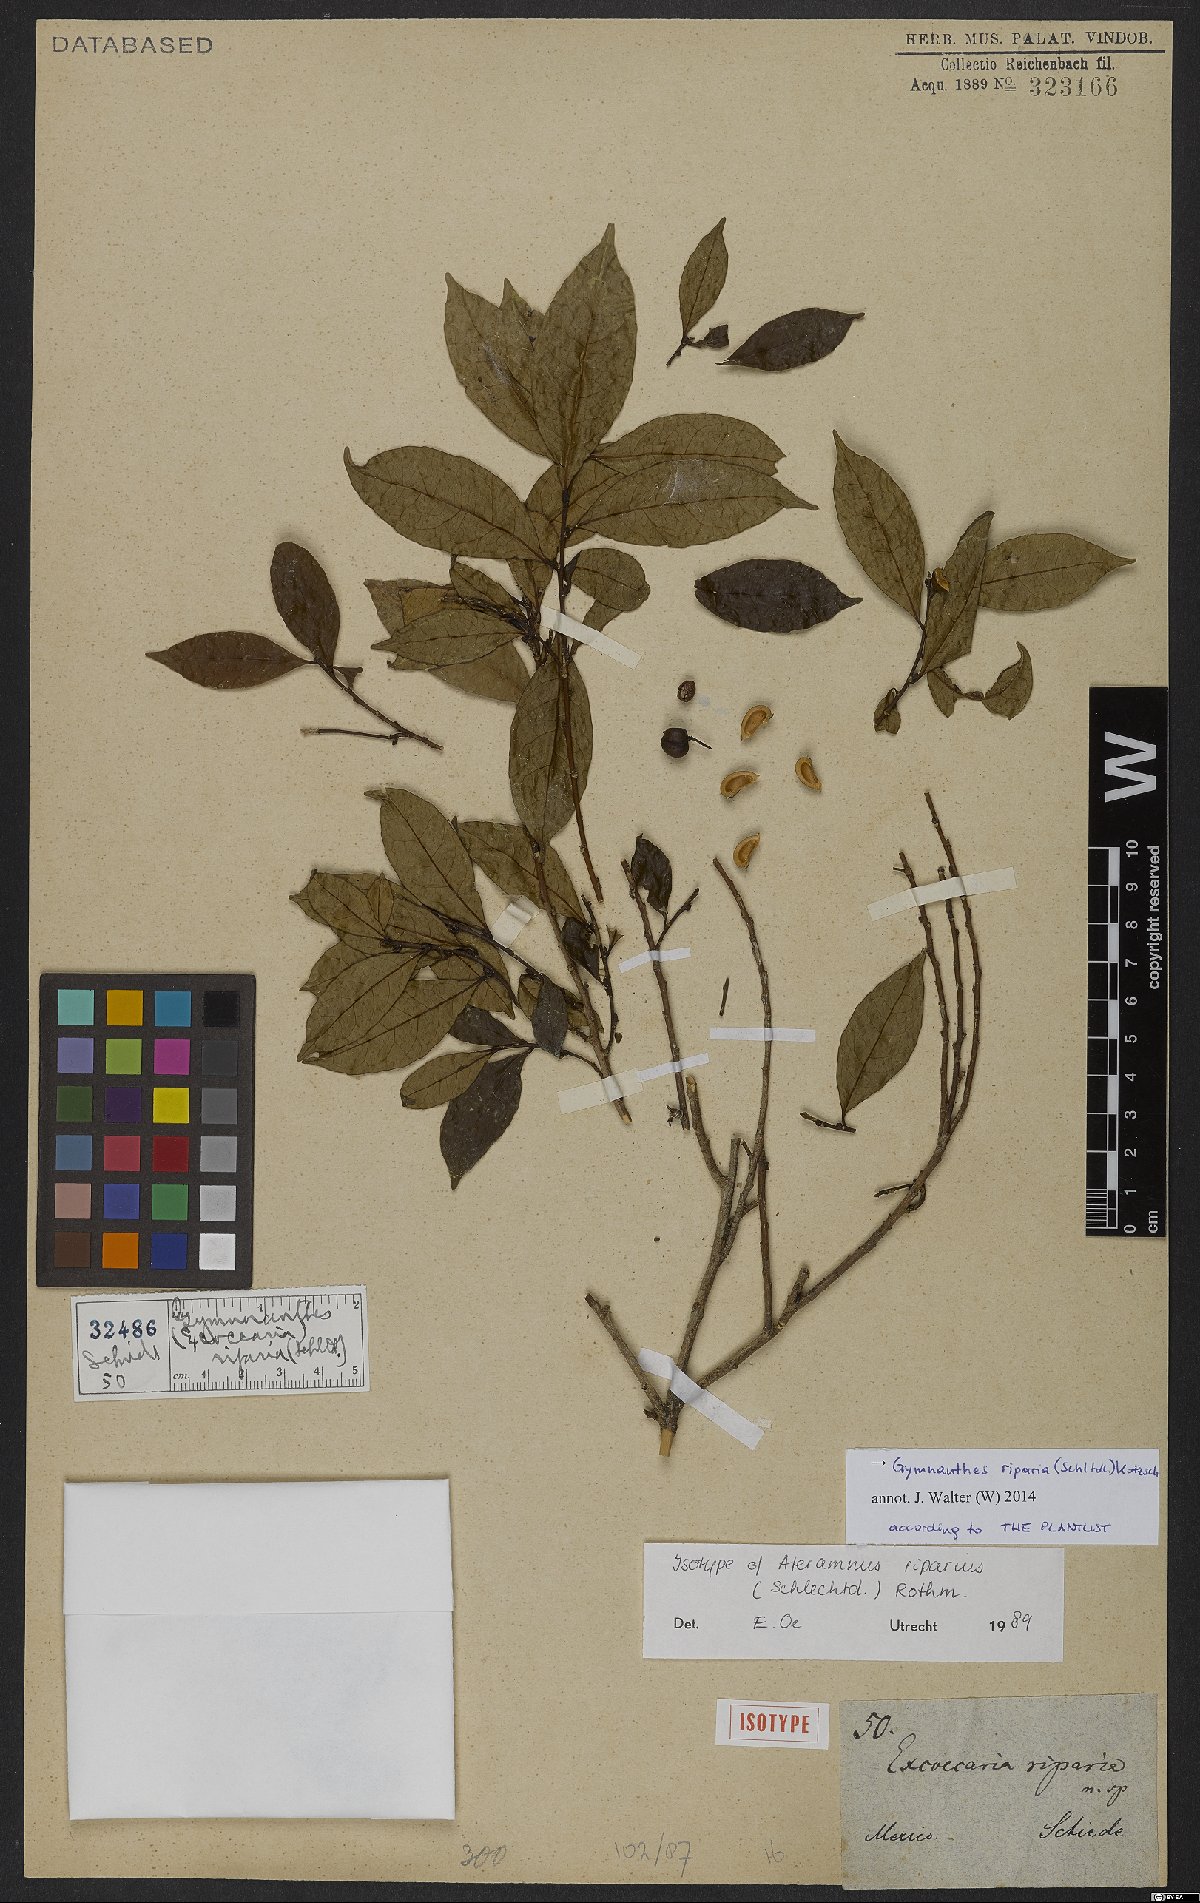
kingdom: Plantae
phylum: Tracheophyta
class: Magnoliopsida
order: Malpighiales
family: Euphorbiaceae
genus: Gymnanthes
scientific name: Gymnanthes riparia
